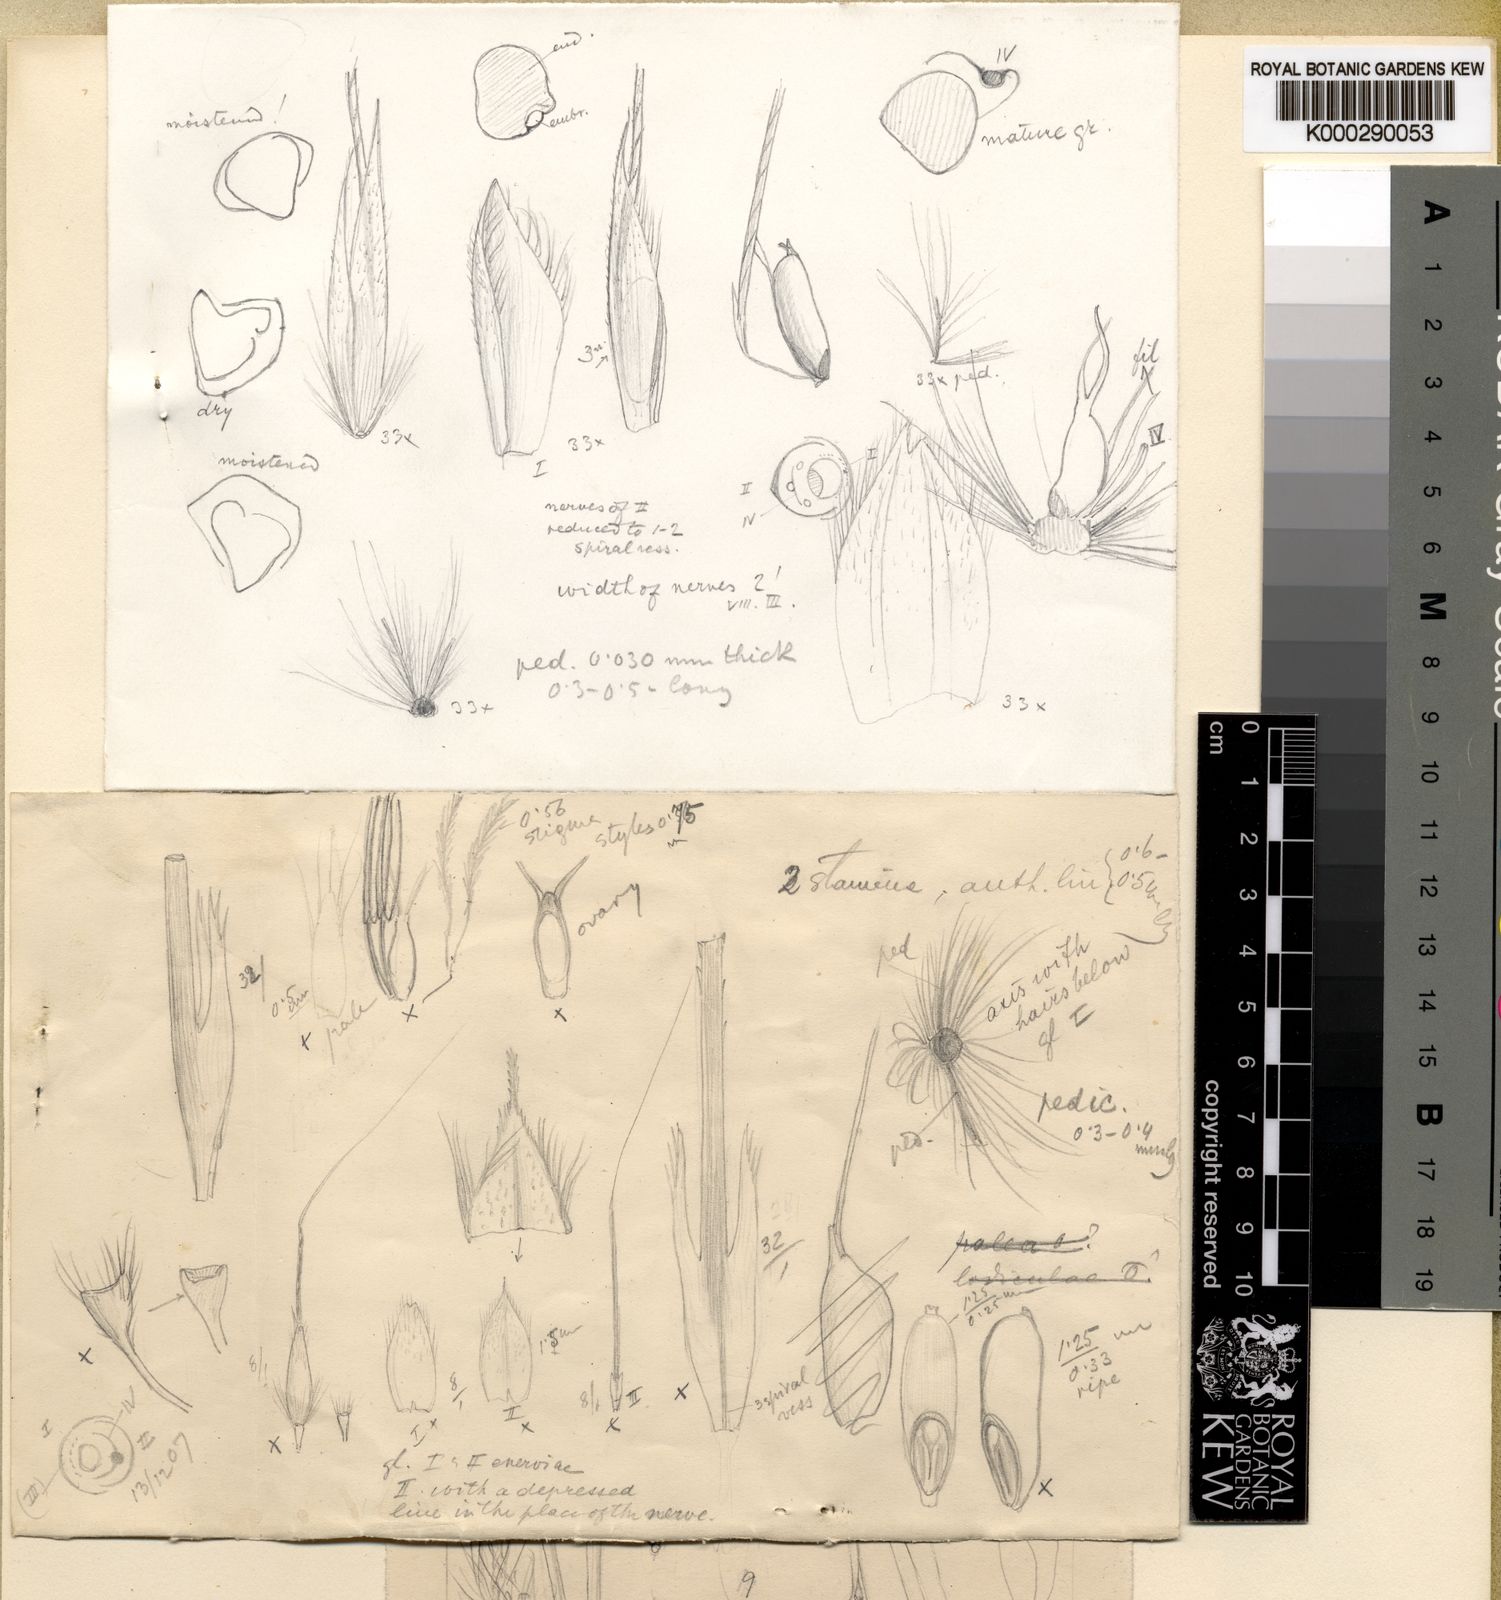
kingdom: Plantae
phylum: Tracheophyta
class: Liliopsida
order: Poales
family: Poaceae
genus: Asthenochloa
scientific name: Asthenochloa tenera
